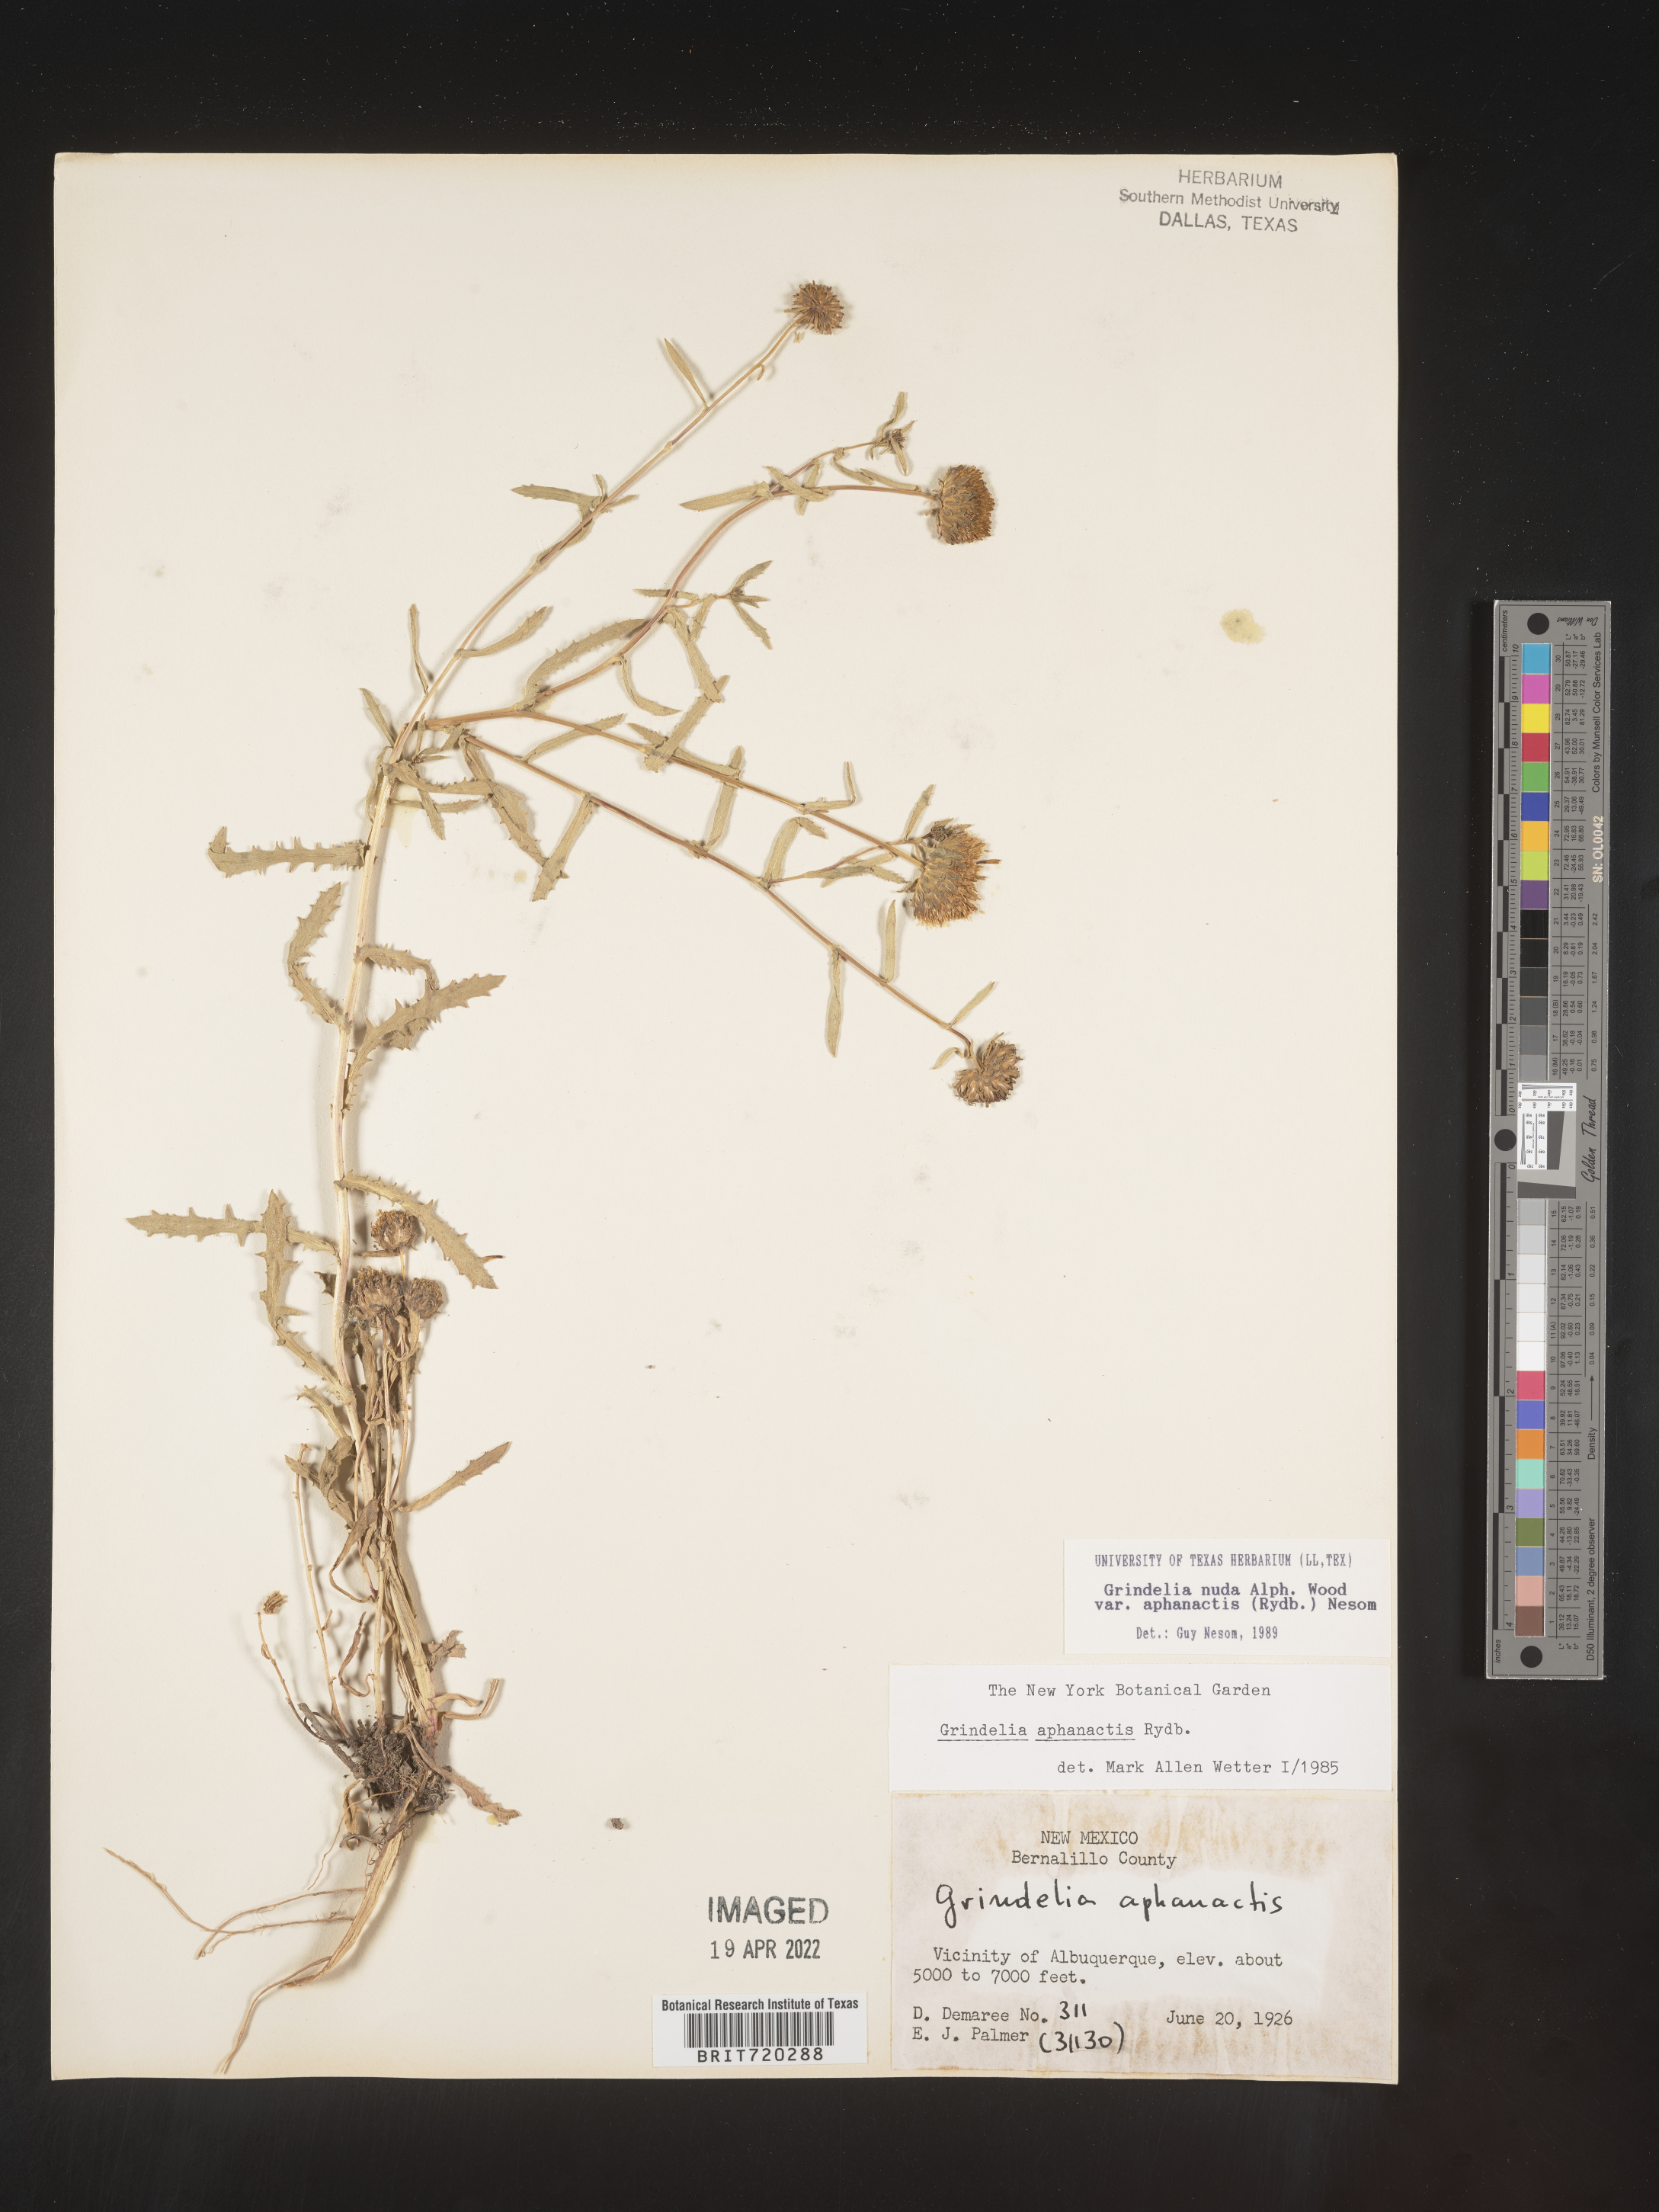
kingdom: Plantae
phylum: Tracheophyta
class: Magnoliopsida
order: Asterales
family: Asteraceae
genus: Grindelia
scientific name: Grindelia nuda
